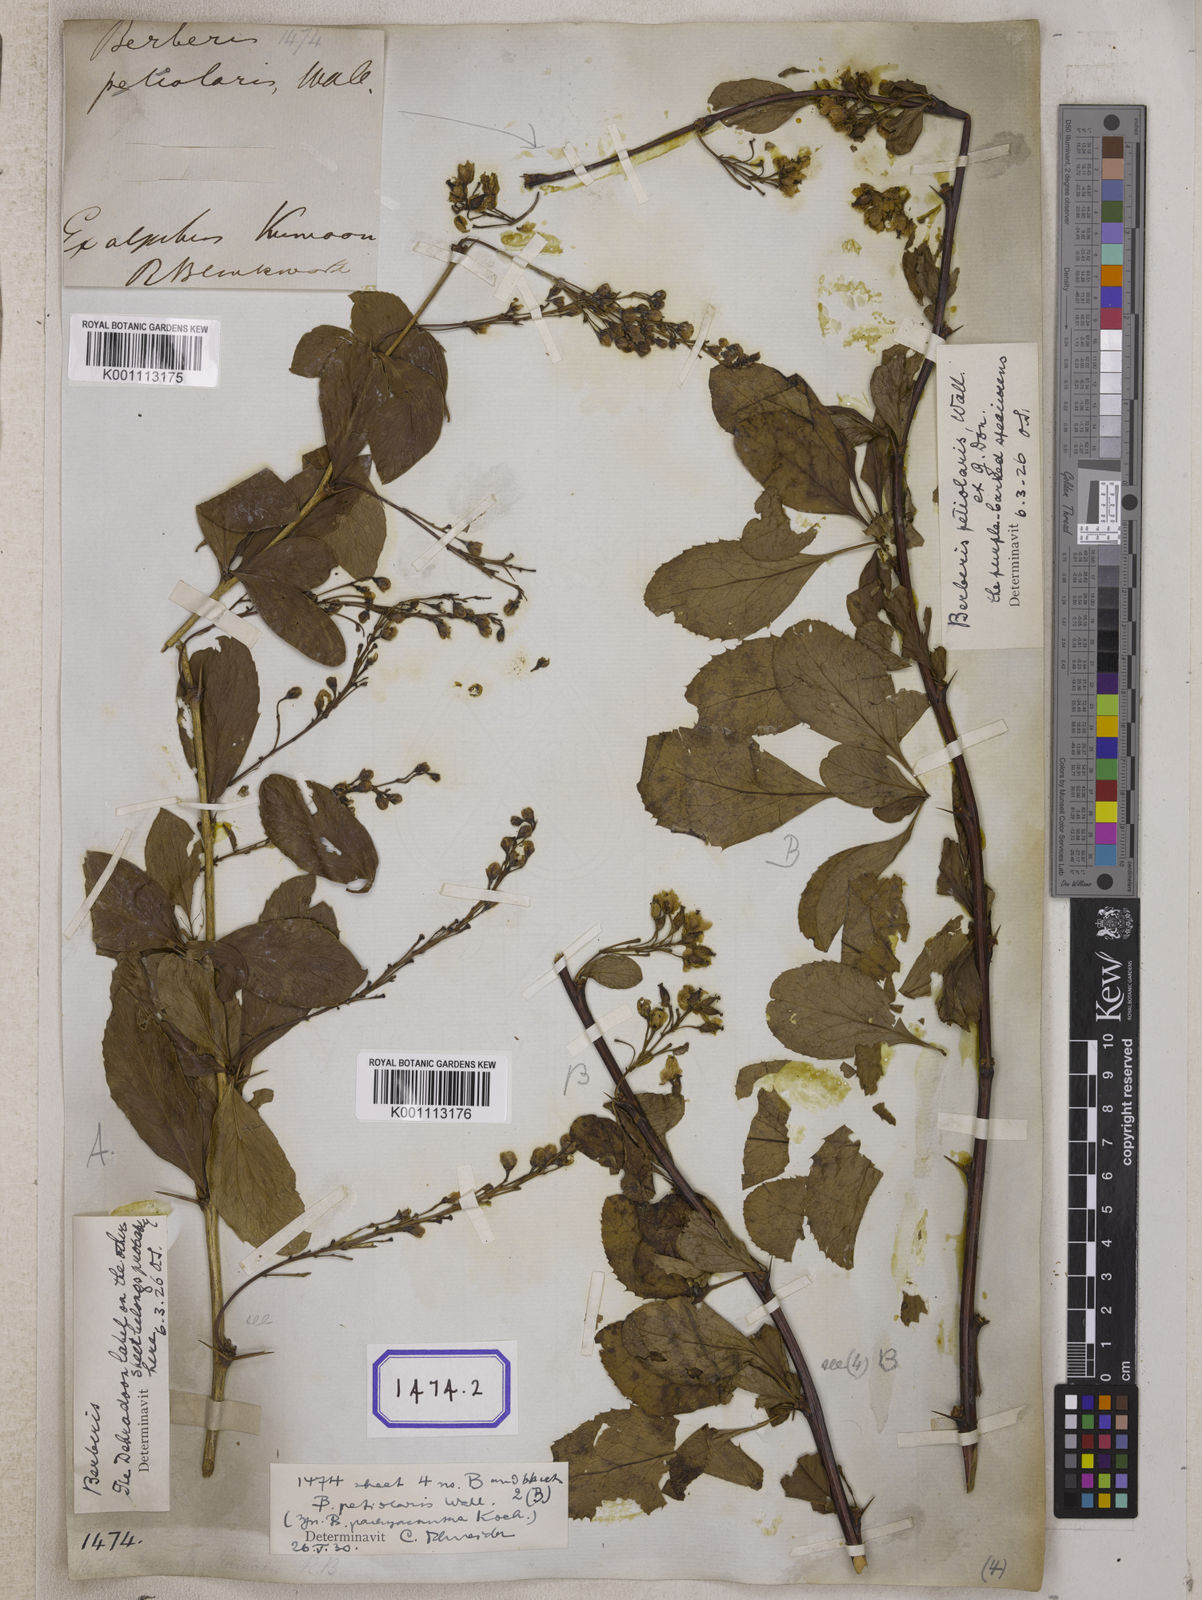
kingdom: Plantae
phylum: Tracheophyta
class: Magnoliopsida
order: Ranunculales
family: Berberidaceae
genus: Berberis
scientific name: Berberis aristata
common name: Indian barberry
